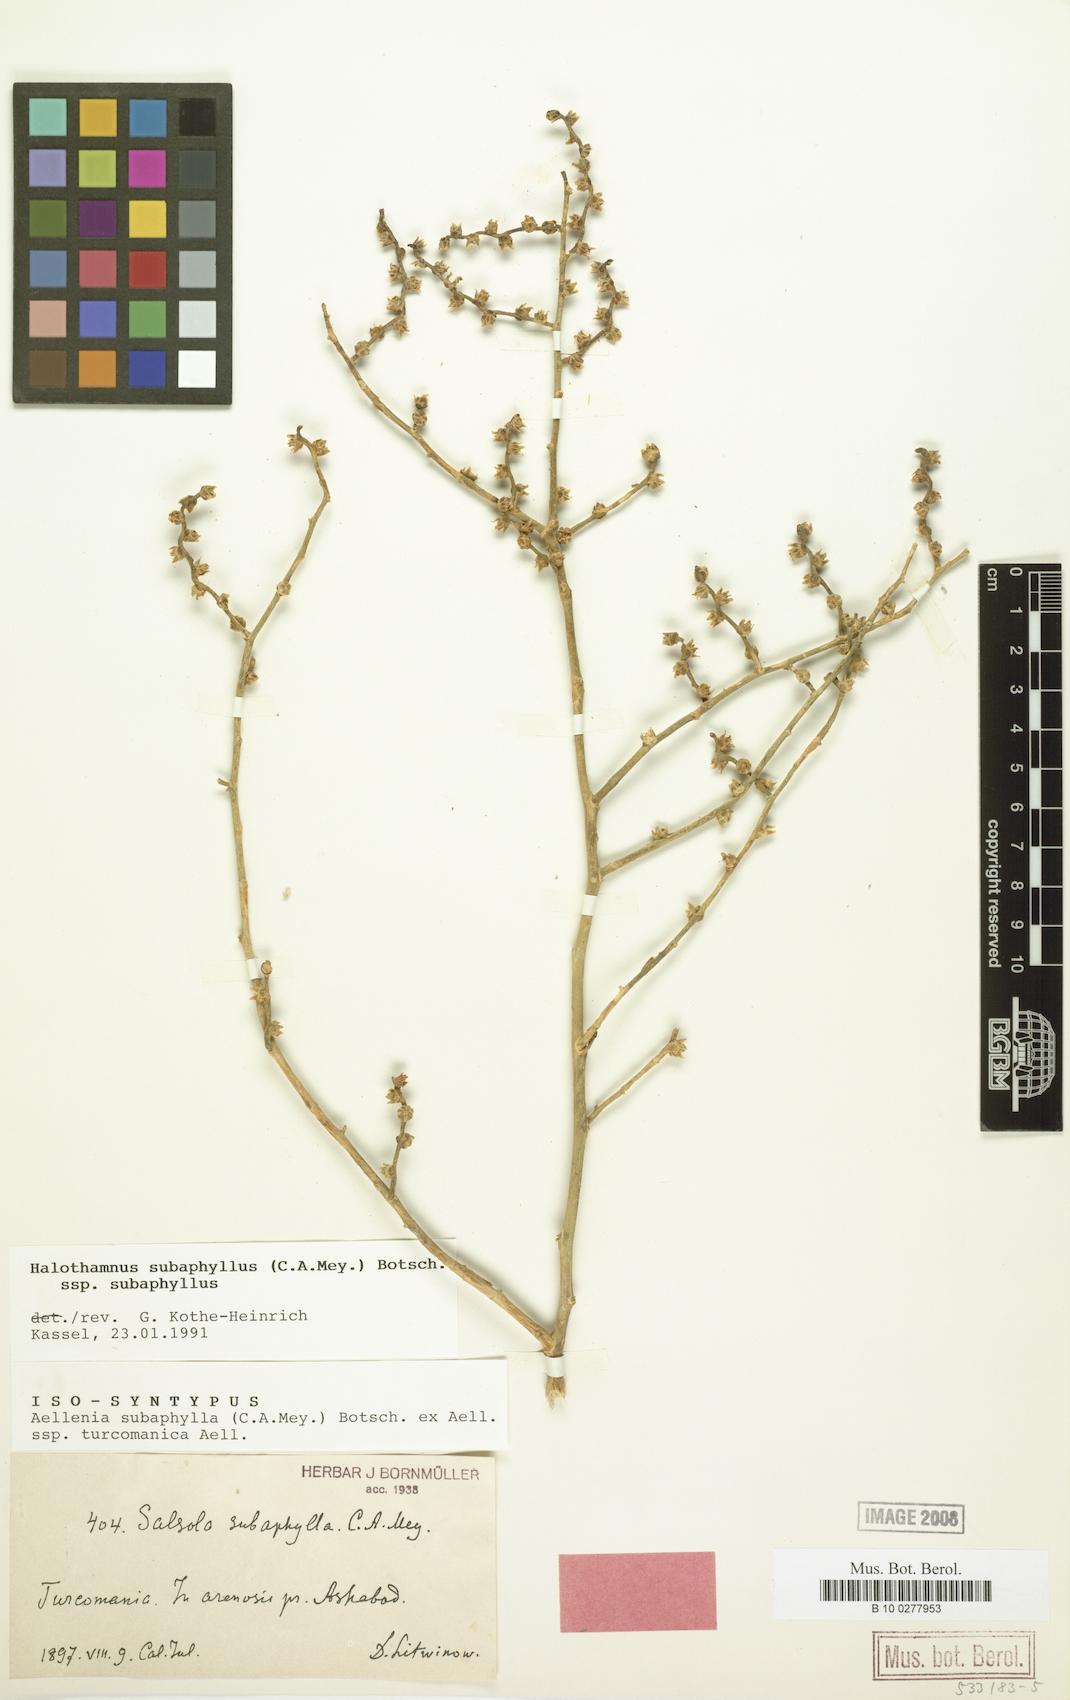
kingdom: Plantae
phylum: Tracheophyta
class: Magnoliopsida
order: Caryophyllales
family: Amaranthaceae
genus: Halothamnus
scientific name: Halothamnus subaphyllus
